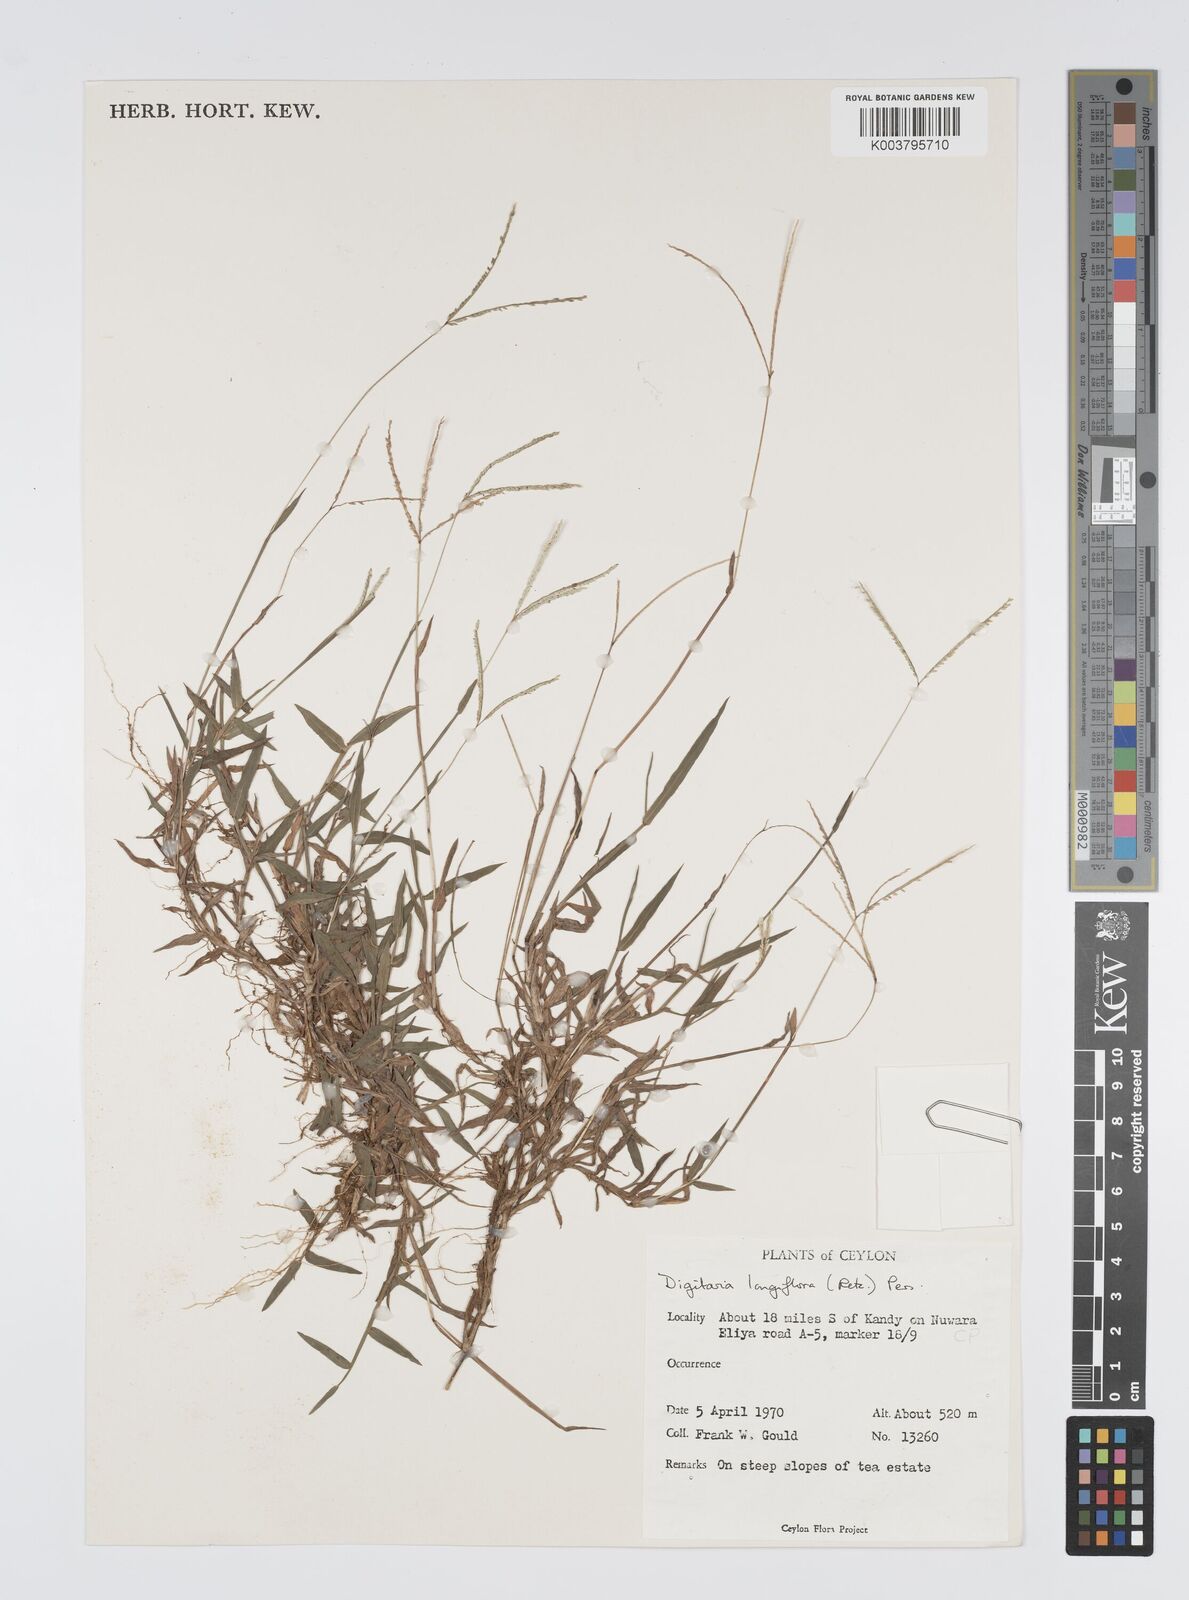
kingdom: Plantae
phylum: Tracheophyta
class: Liliopsida
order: Poales
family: Poaceae
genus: Digitaria
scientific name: Digitaria longiflora
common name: Wire crabgrass
